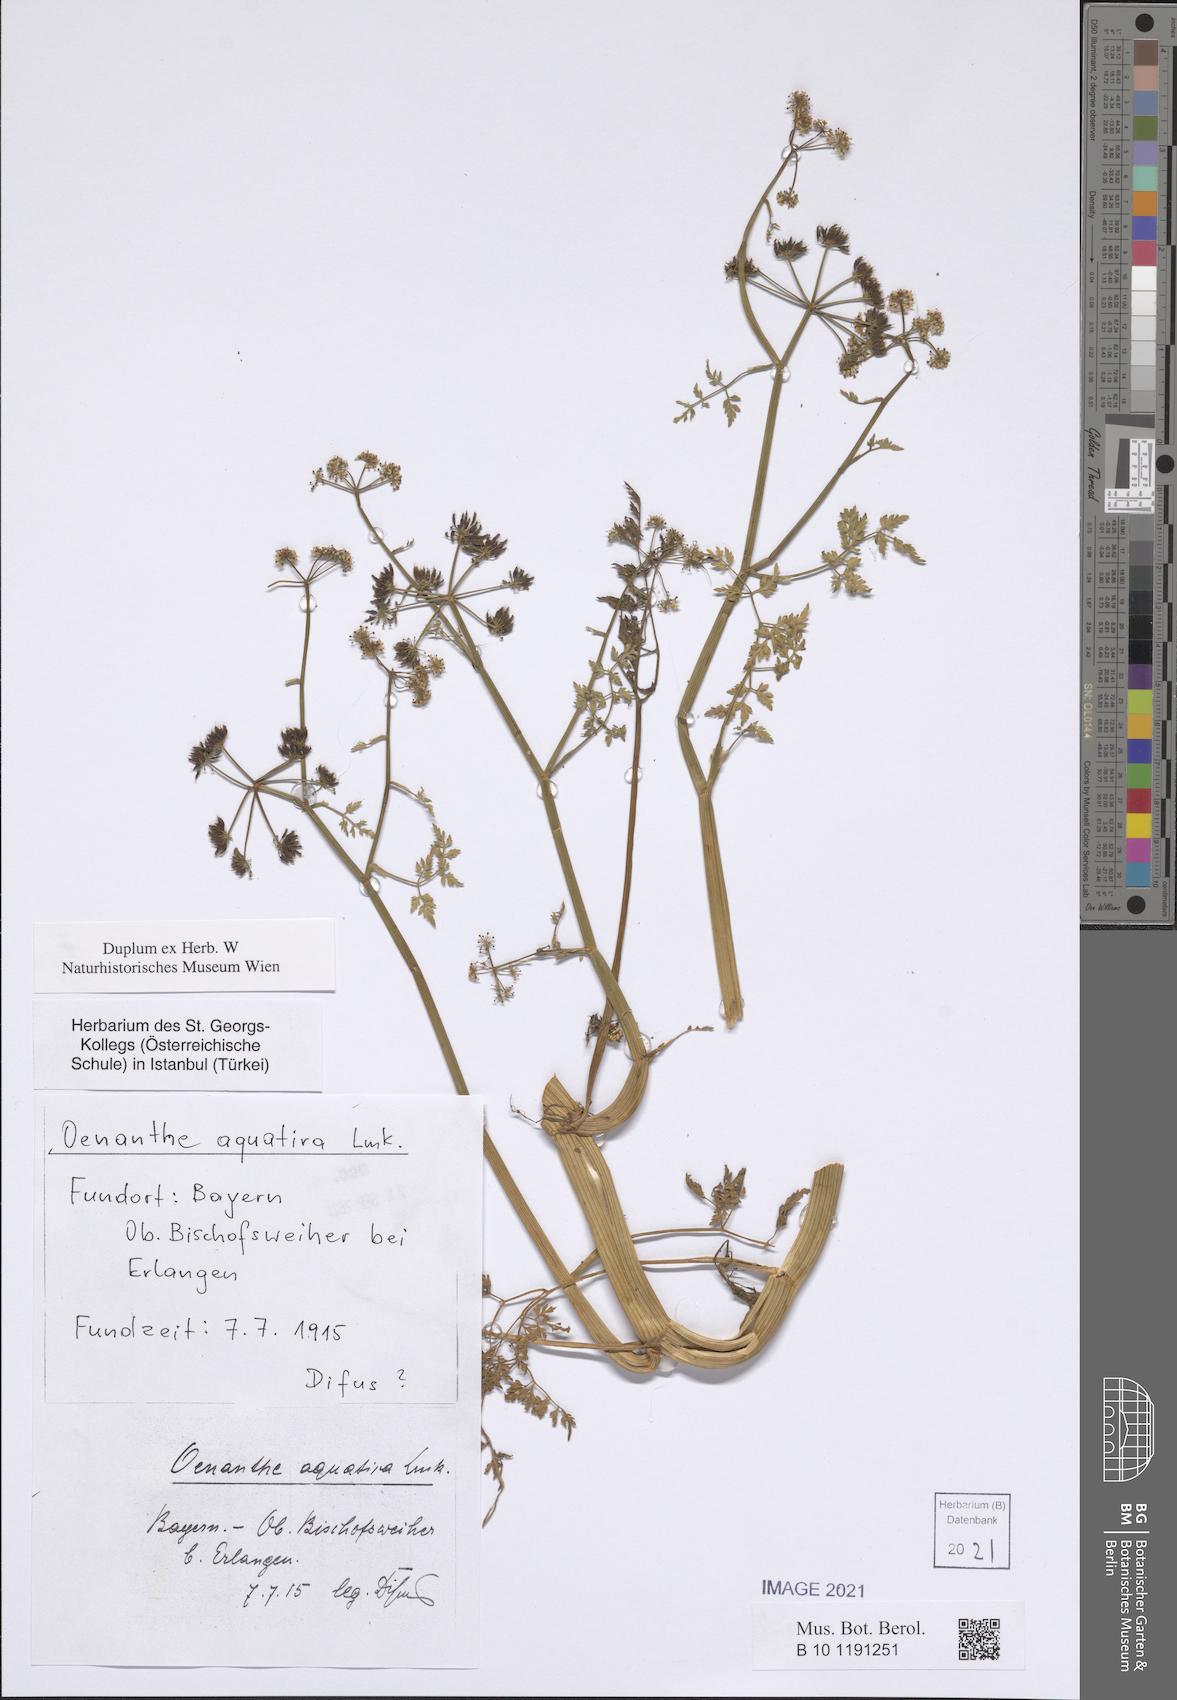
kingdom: Plantae
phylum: Tracheophyta
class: Magnoliopsida
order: Apiales
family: Apiaceae
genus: Oenanthe
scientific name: Oenanthe aquatica
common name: Fine-leaved water-dropwort
